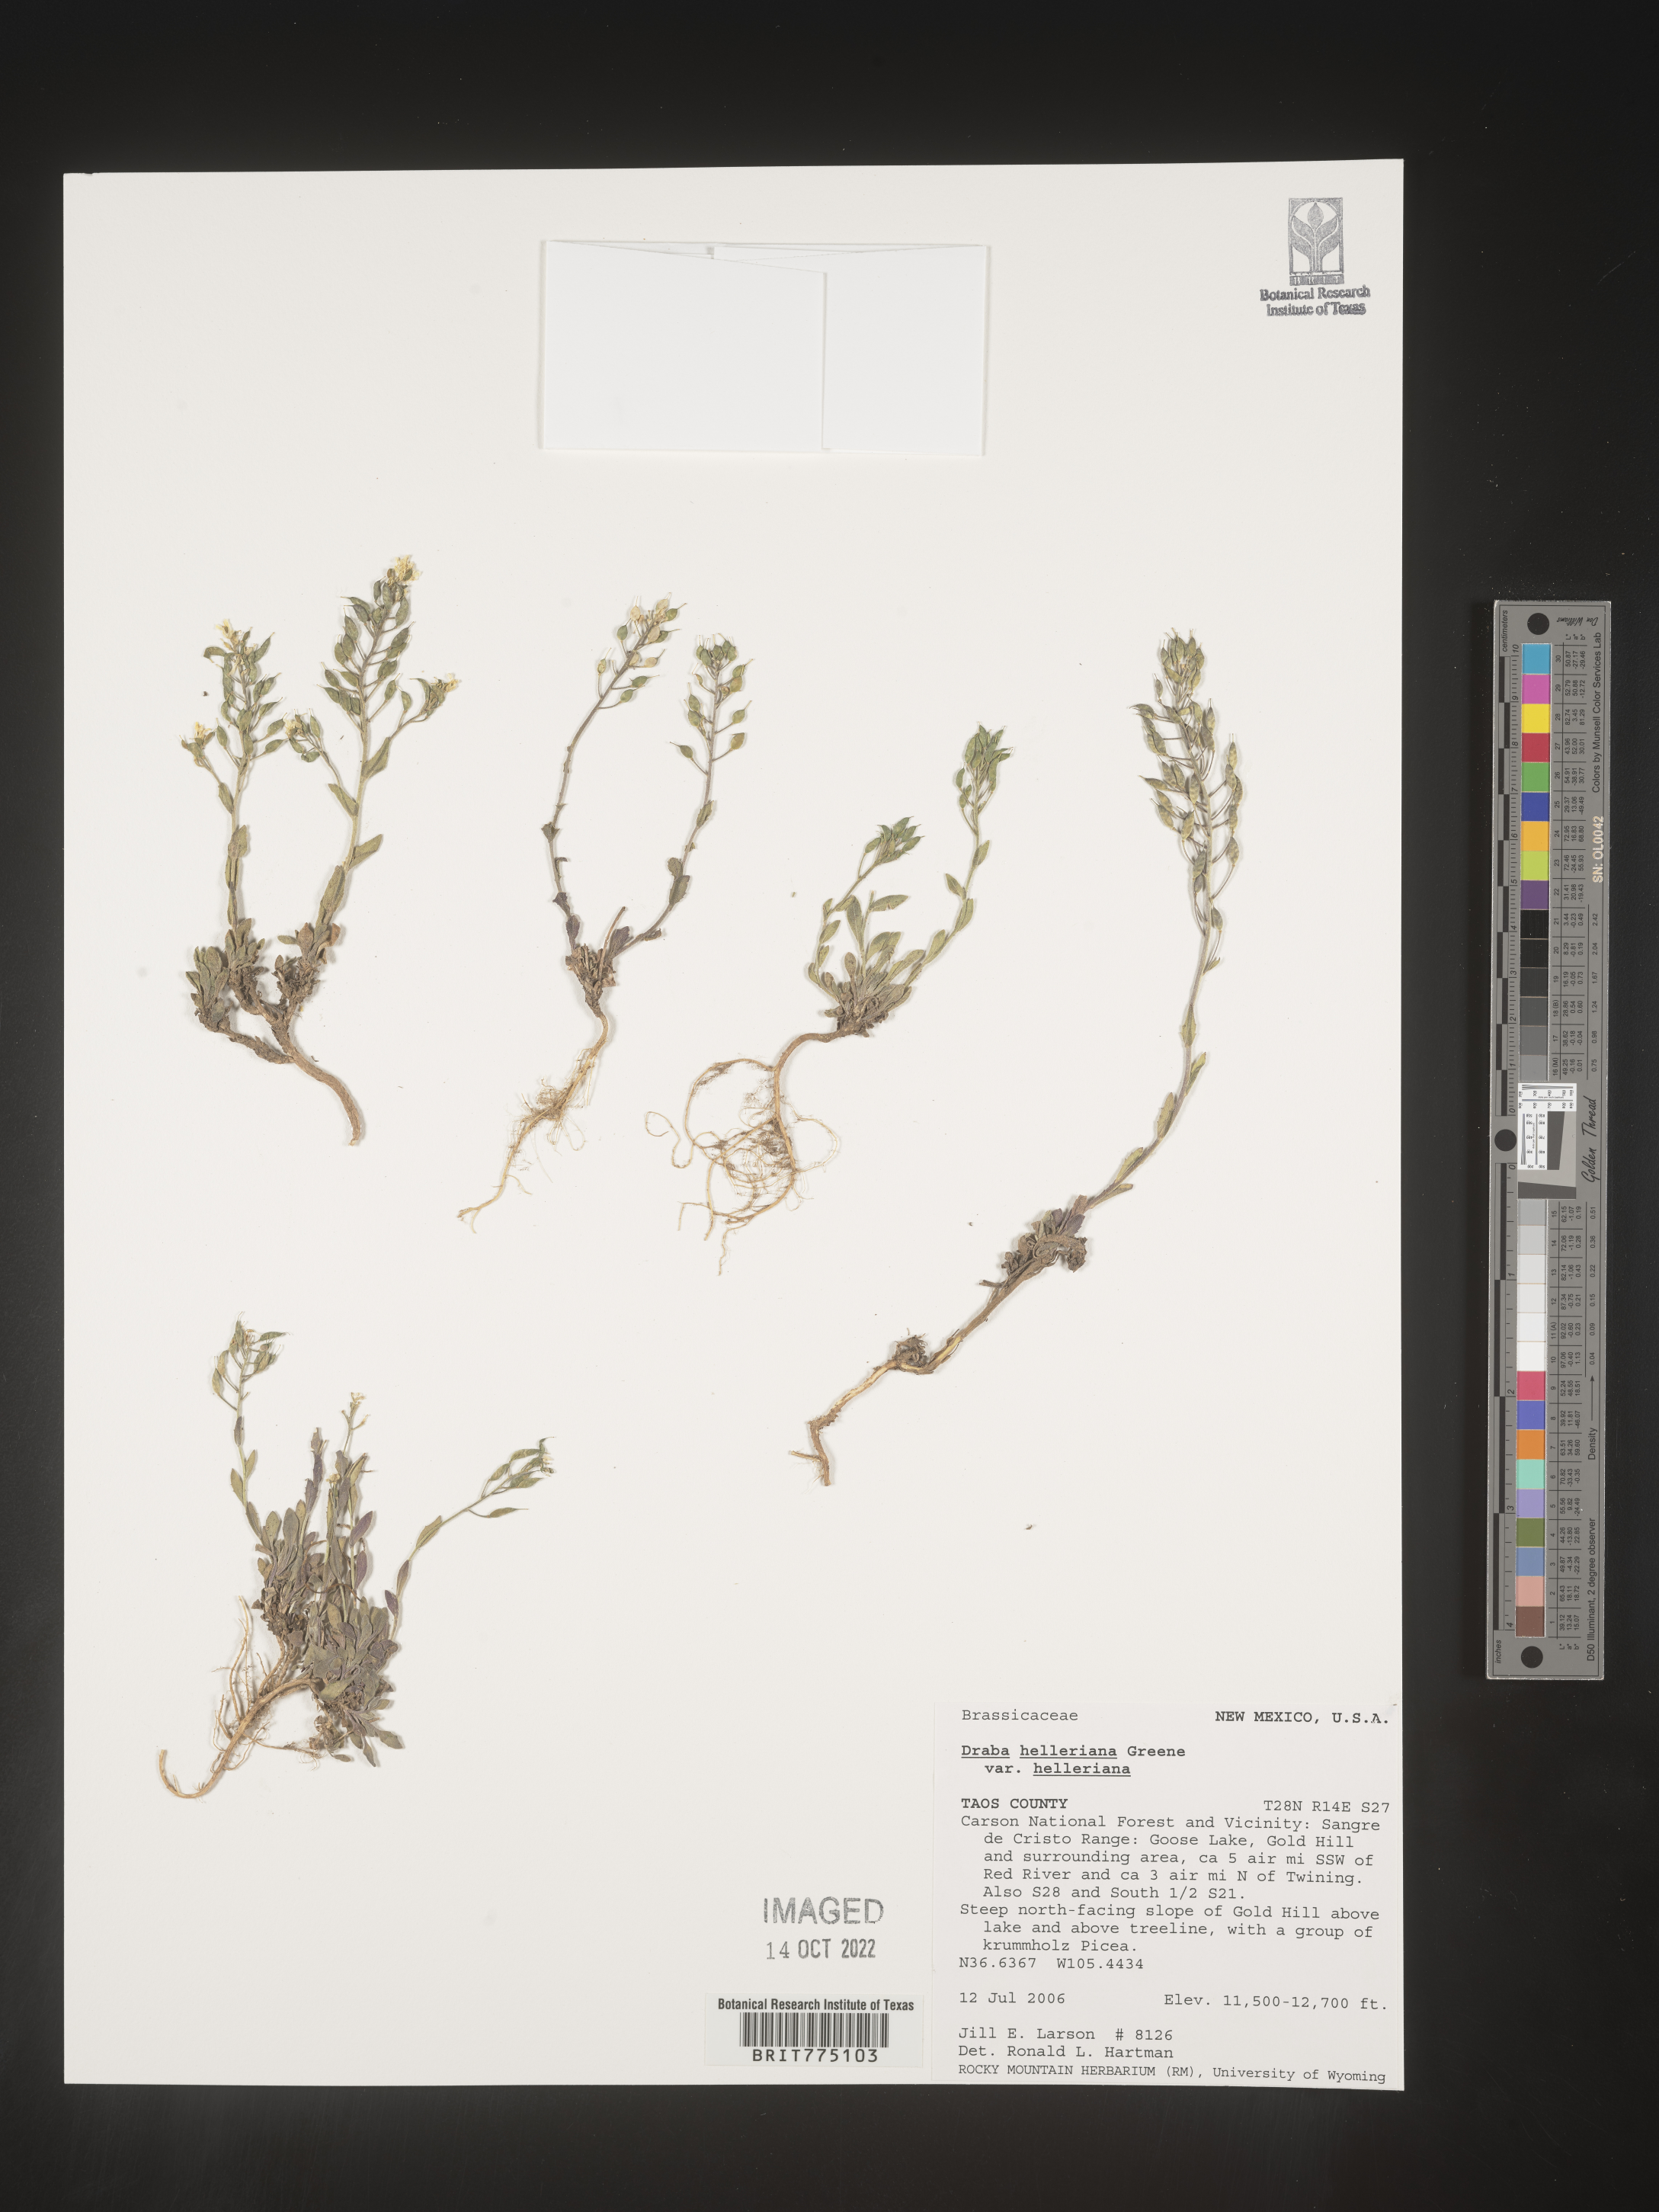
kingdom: Plantae
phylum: Tracheophyta
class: Magnoliopsida
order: Brassicales
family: Brassicaceae
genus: Draba
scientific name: Draba
